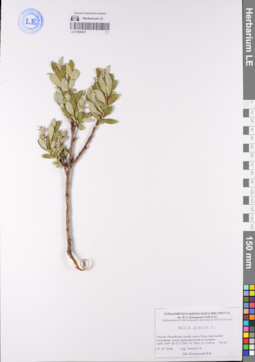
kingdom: Plantae
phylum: Tracheophyta
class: Magnoliopsida
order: Malpighiales
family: Salicaceae
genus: Salix
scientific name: Salix glauca
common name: Glaucous willow
